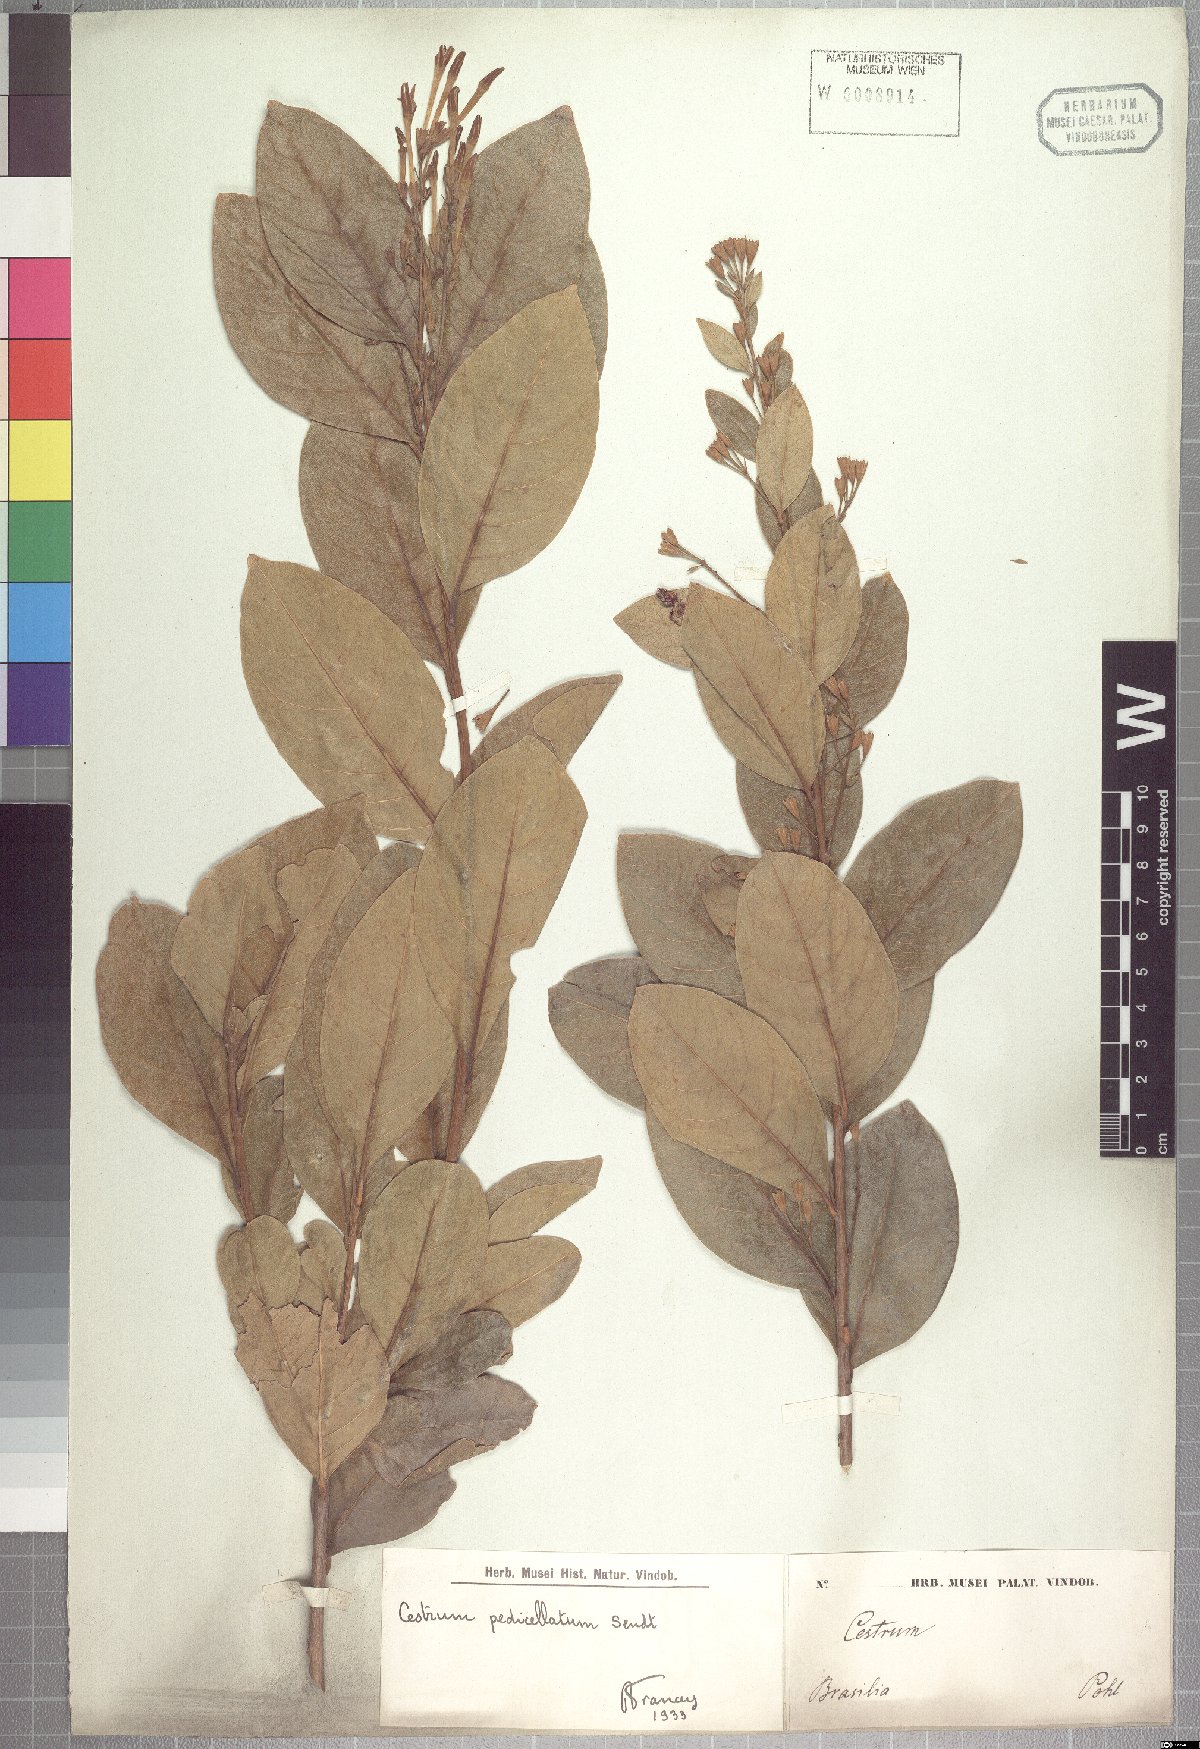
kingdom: Plantae
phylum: Tracheophyta
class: Magnoliopsida
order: Solanales
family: Solanaceae
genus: Cestrum
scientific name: Cestrum pedicellatum
